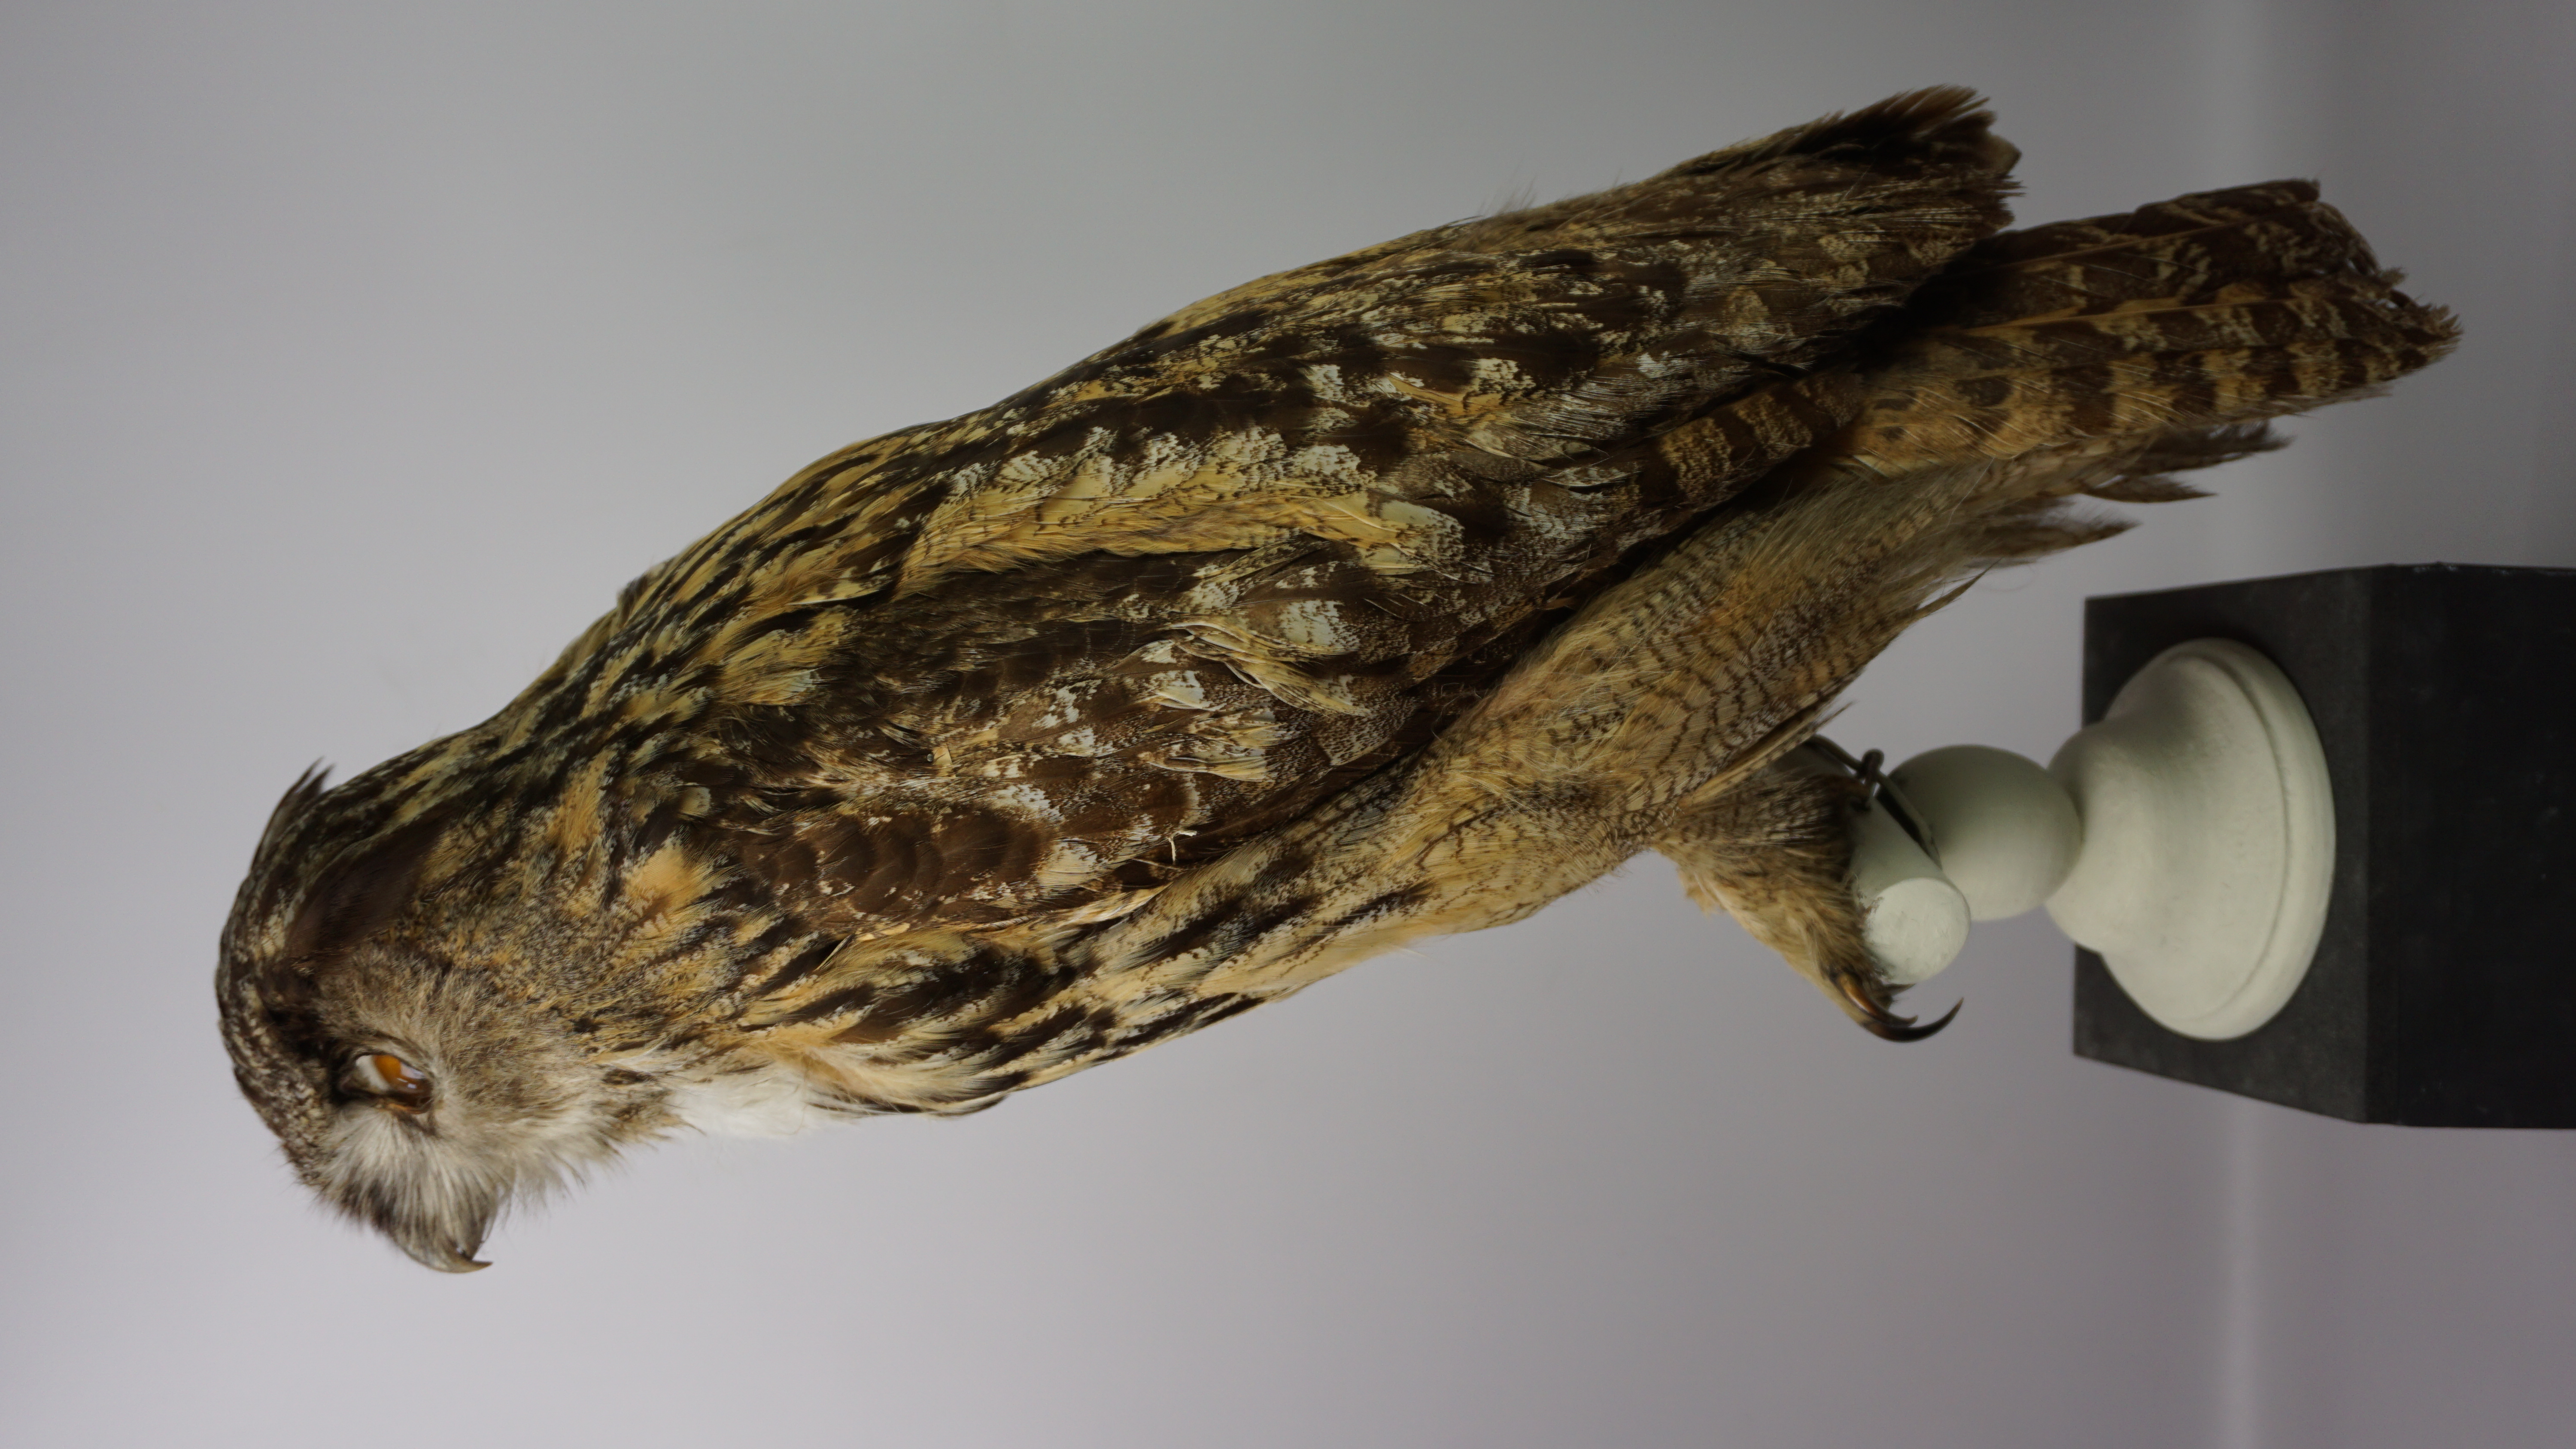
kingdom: Animalia
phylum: Chordata
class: Aves
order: Strigiformes
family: Strigidae
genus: Bubo
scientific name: Bubo bubo
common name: Eurasian eagle-owl
